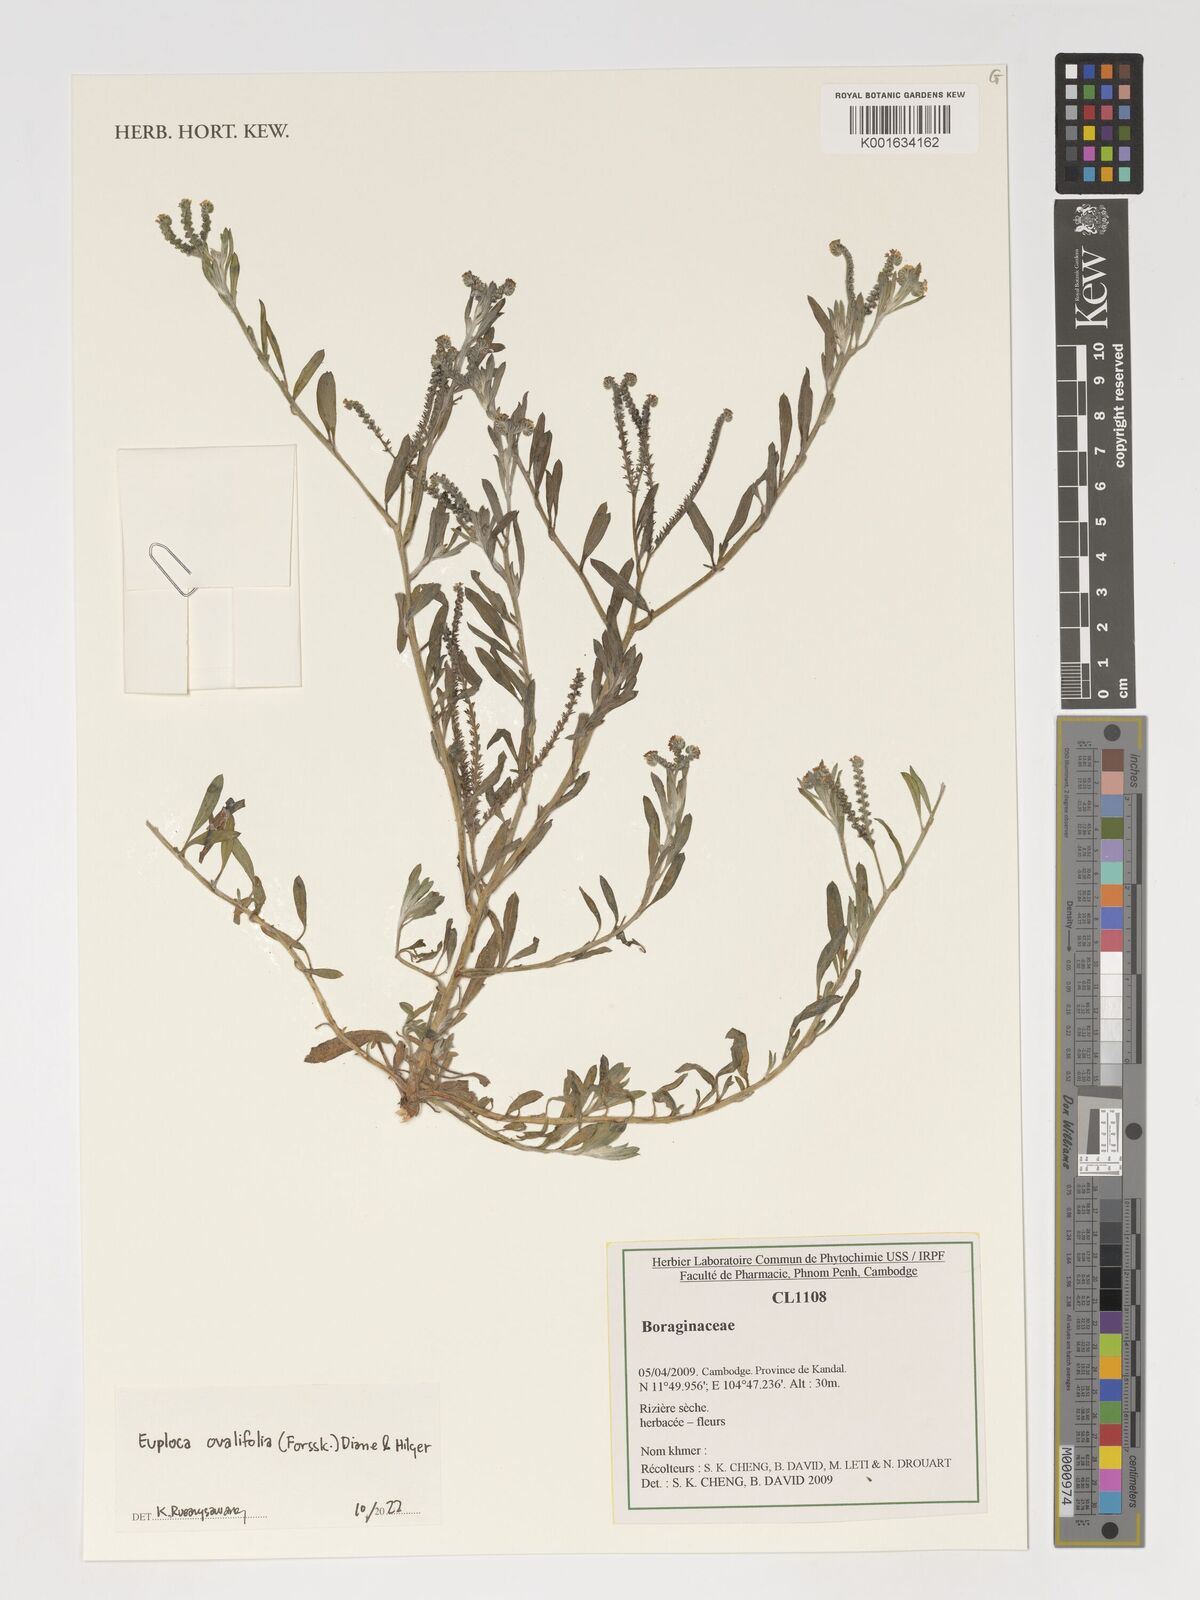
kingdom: Plantae
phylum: Tracheophyta
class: Magnoliopsida
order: Boraginales
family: Heliotropiaceae
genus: Euploca
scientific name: Euploca ovalifolia
